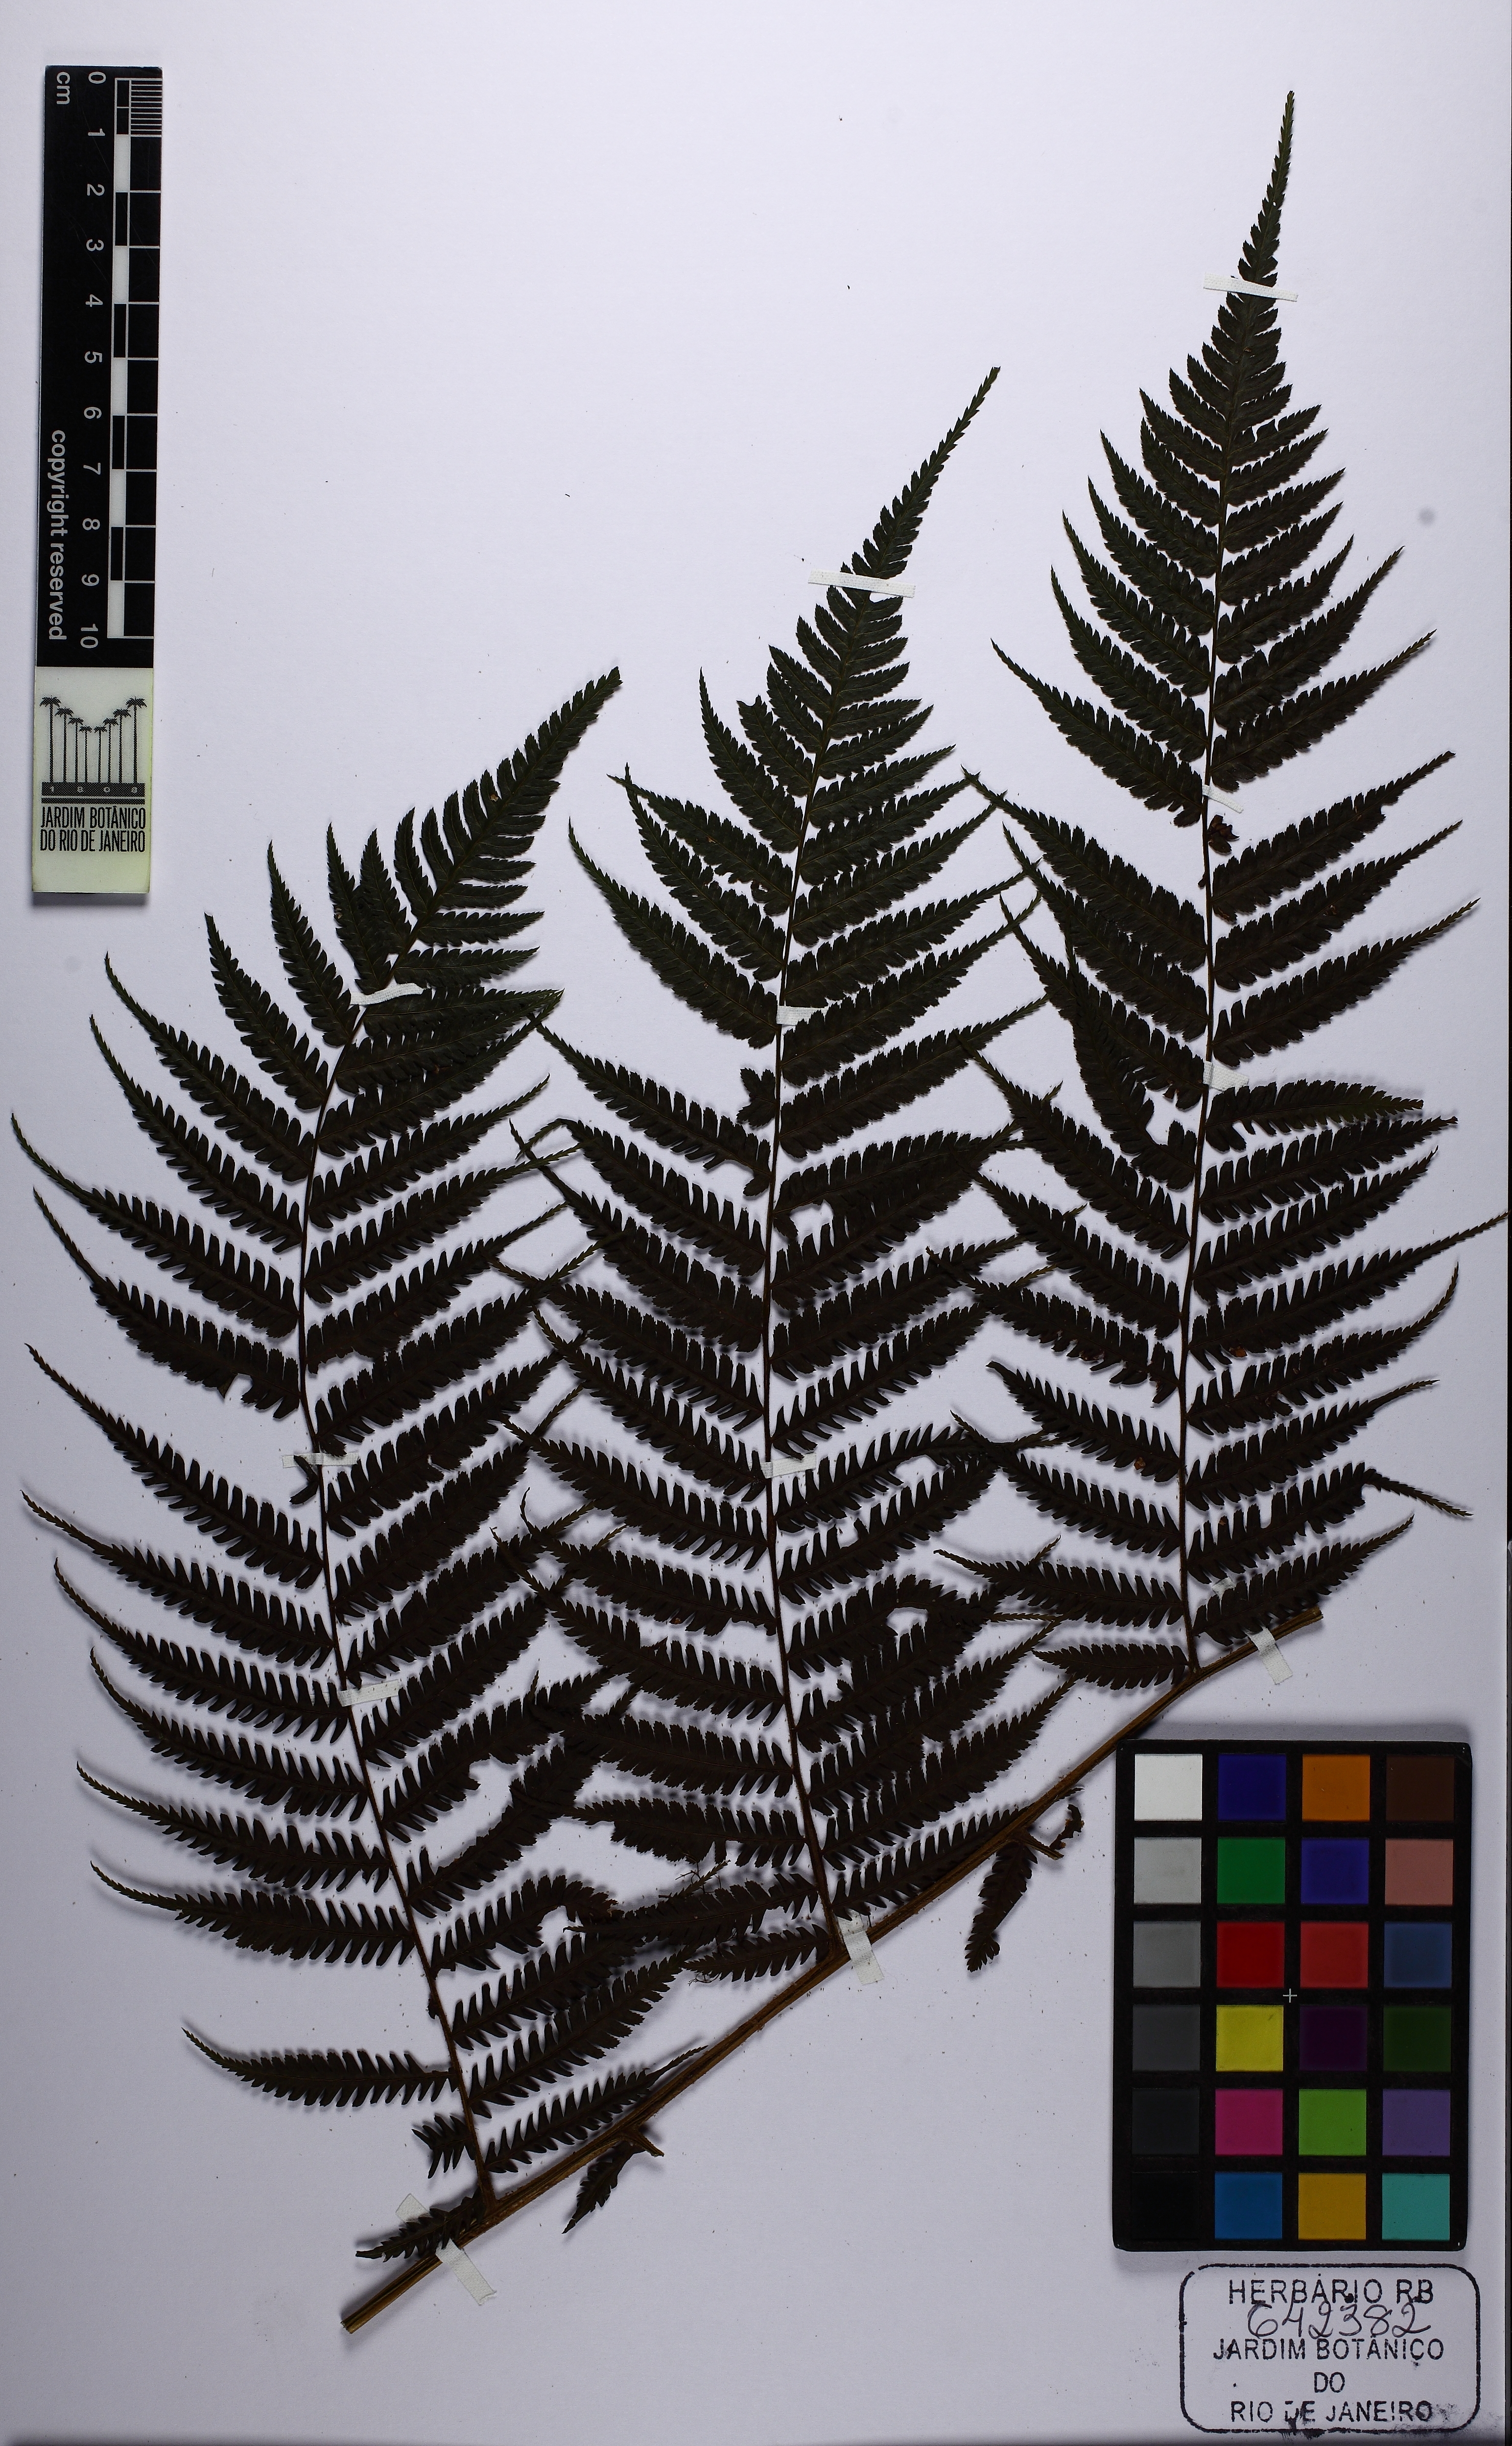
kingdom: Plantae
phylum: Tracheophyta
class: Polypodiopsida
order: Cyatheales
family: Cyatheaceae
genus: Gymnosphaera
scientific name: Gymnosphaera capensis
